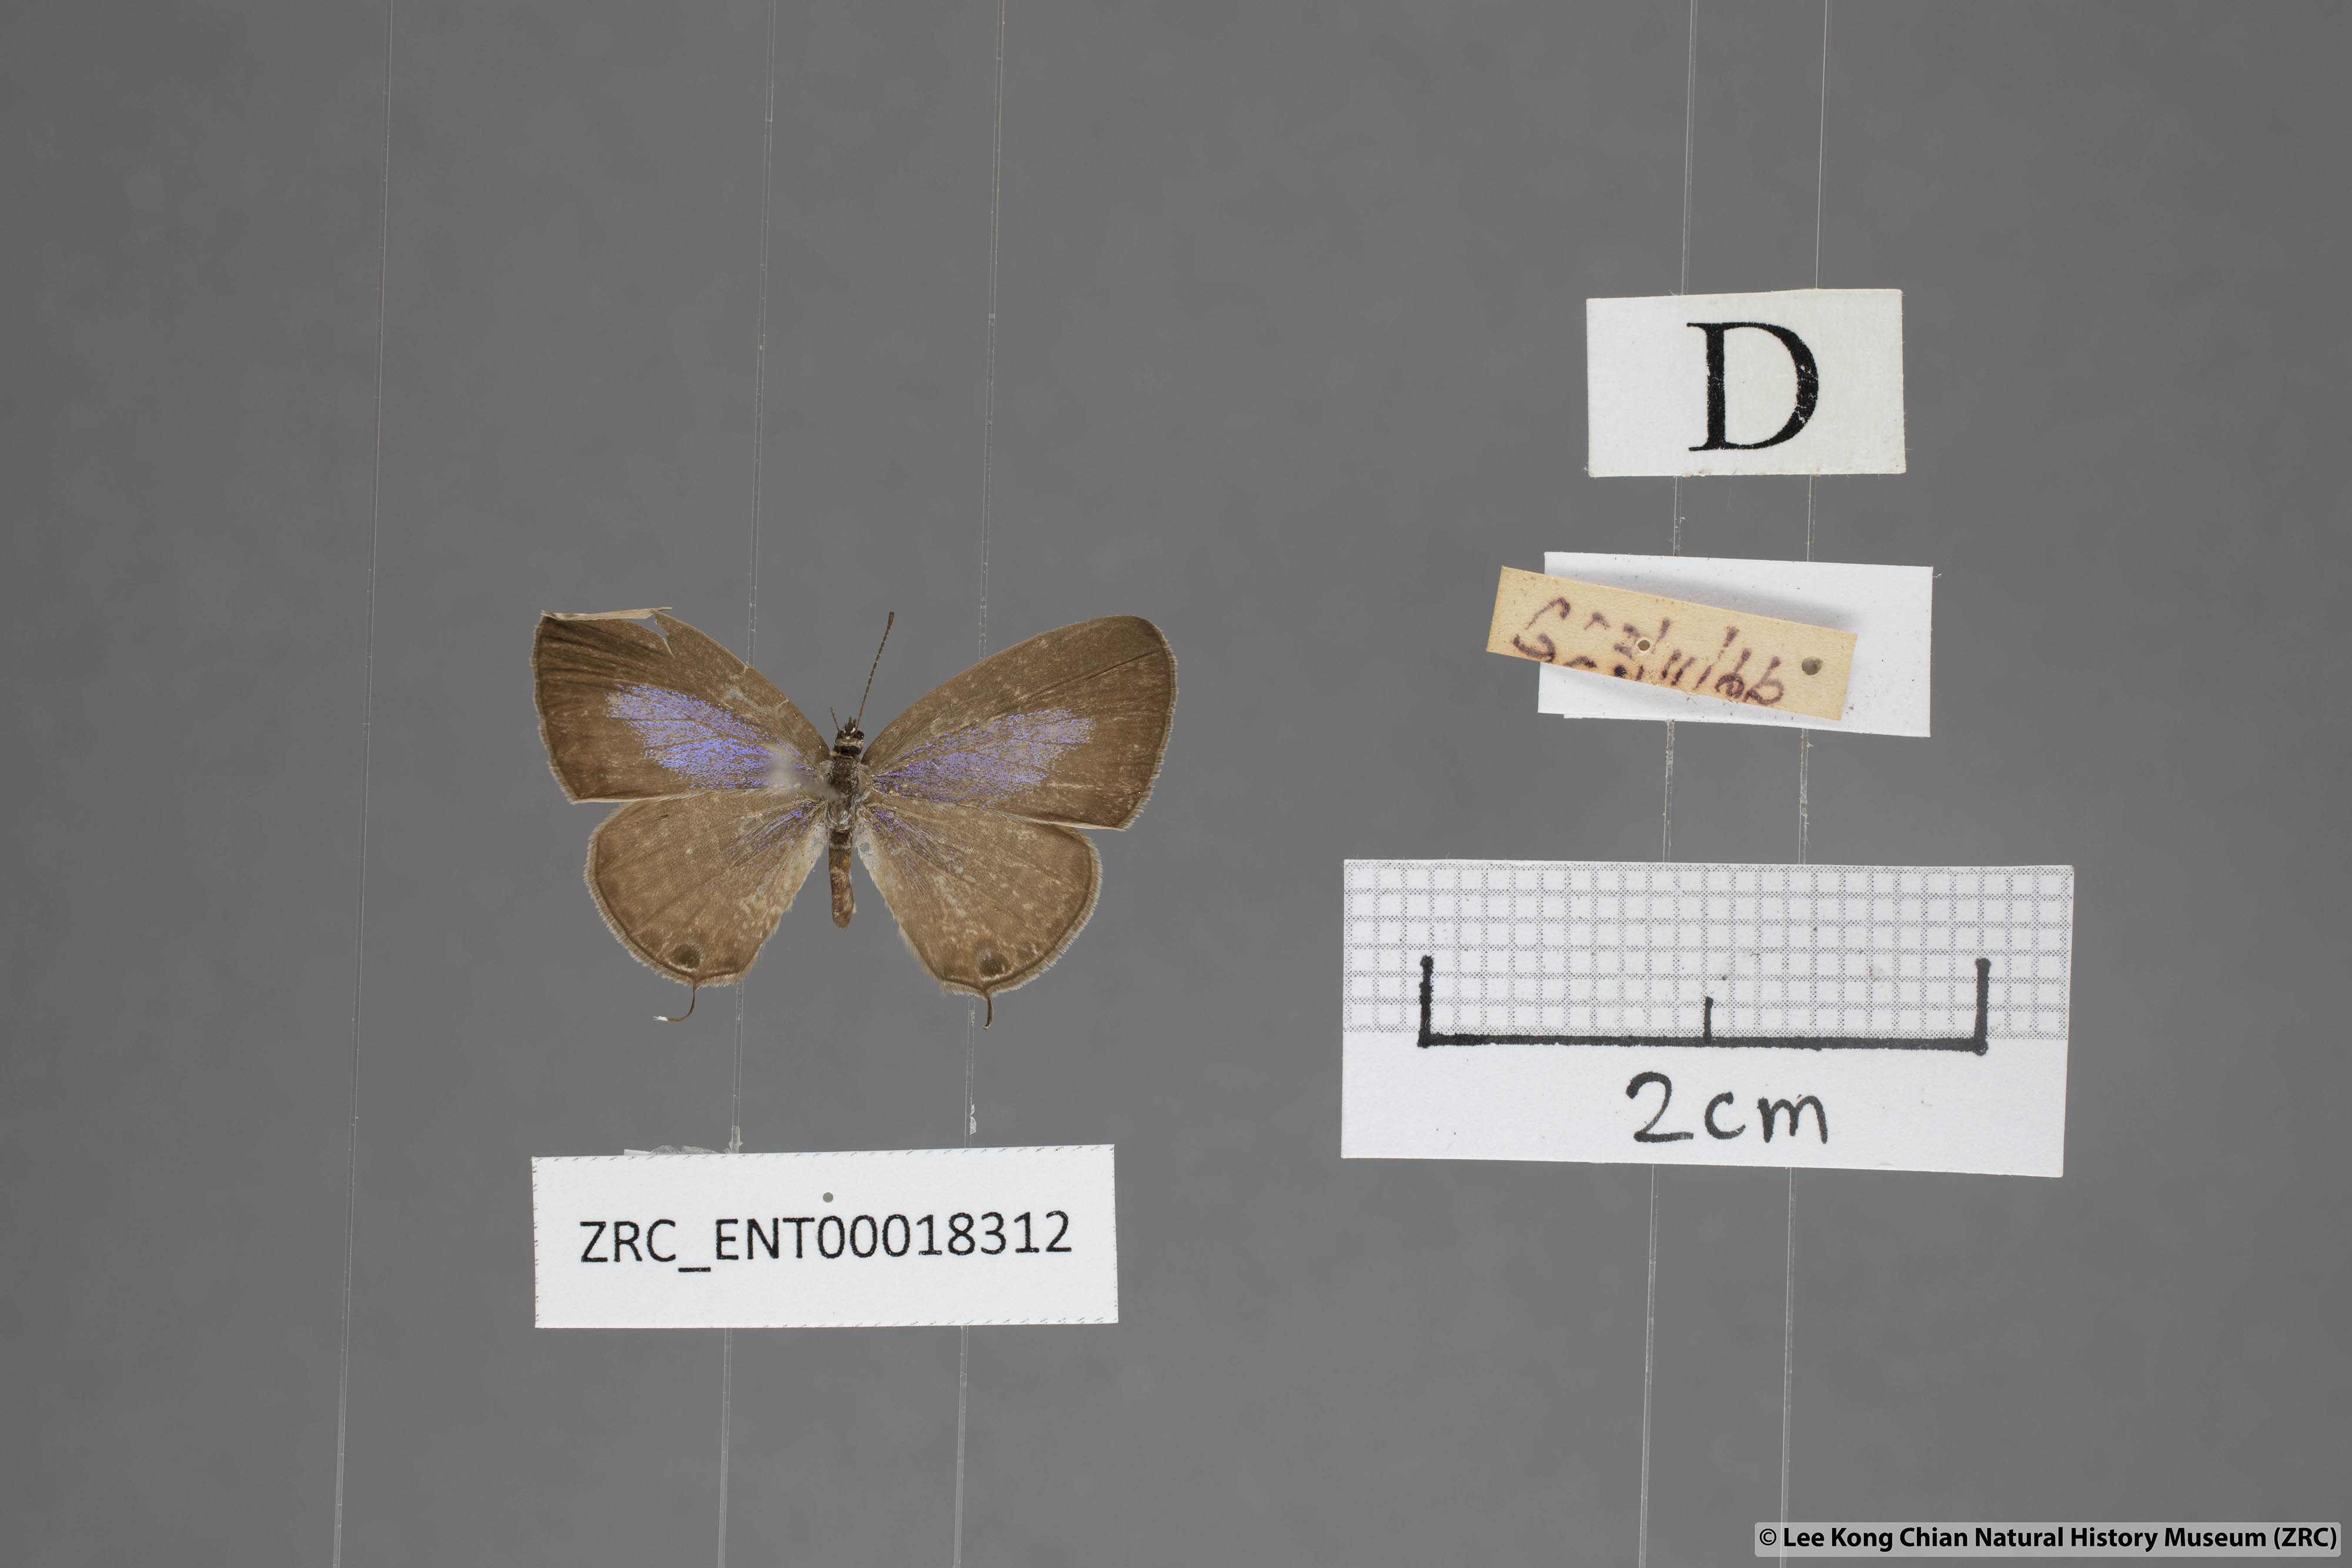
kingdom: Animalia
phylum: Arthropoda
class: Insecta
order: Lepidoptera
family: Lycaenidae
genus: Nacaduba
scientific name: Nacaduba beroe
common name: Opaque sixline blue
